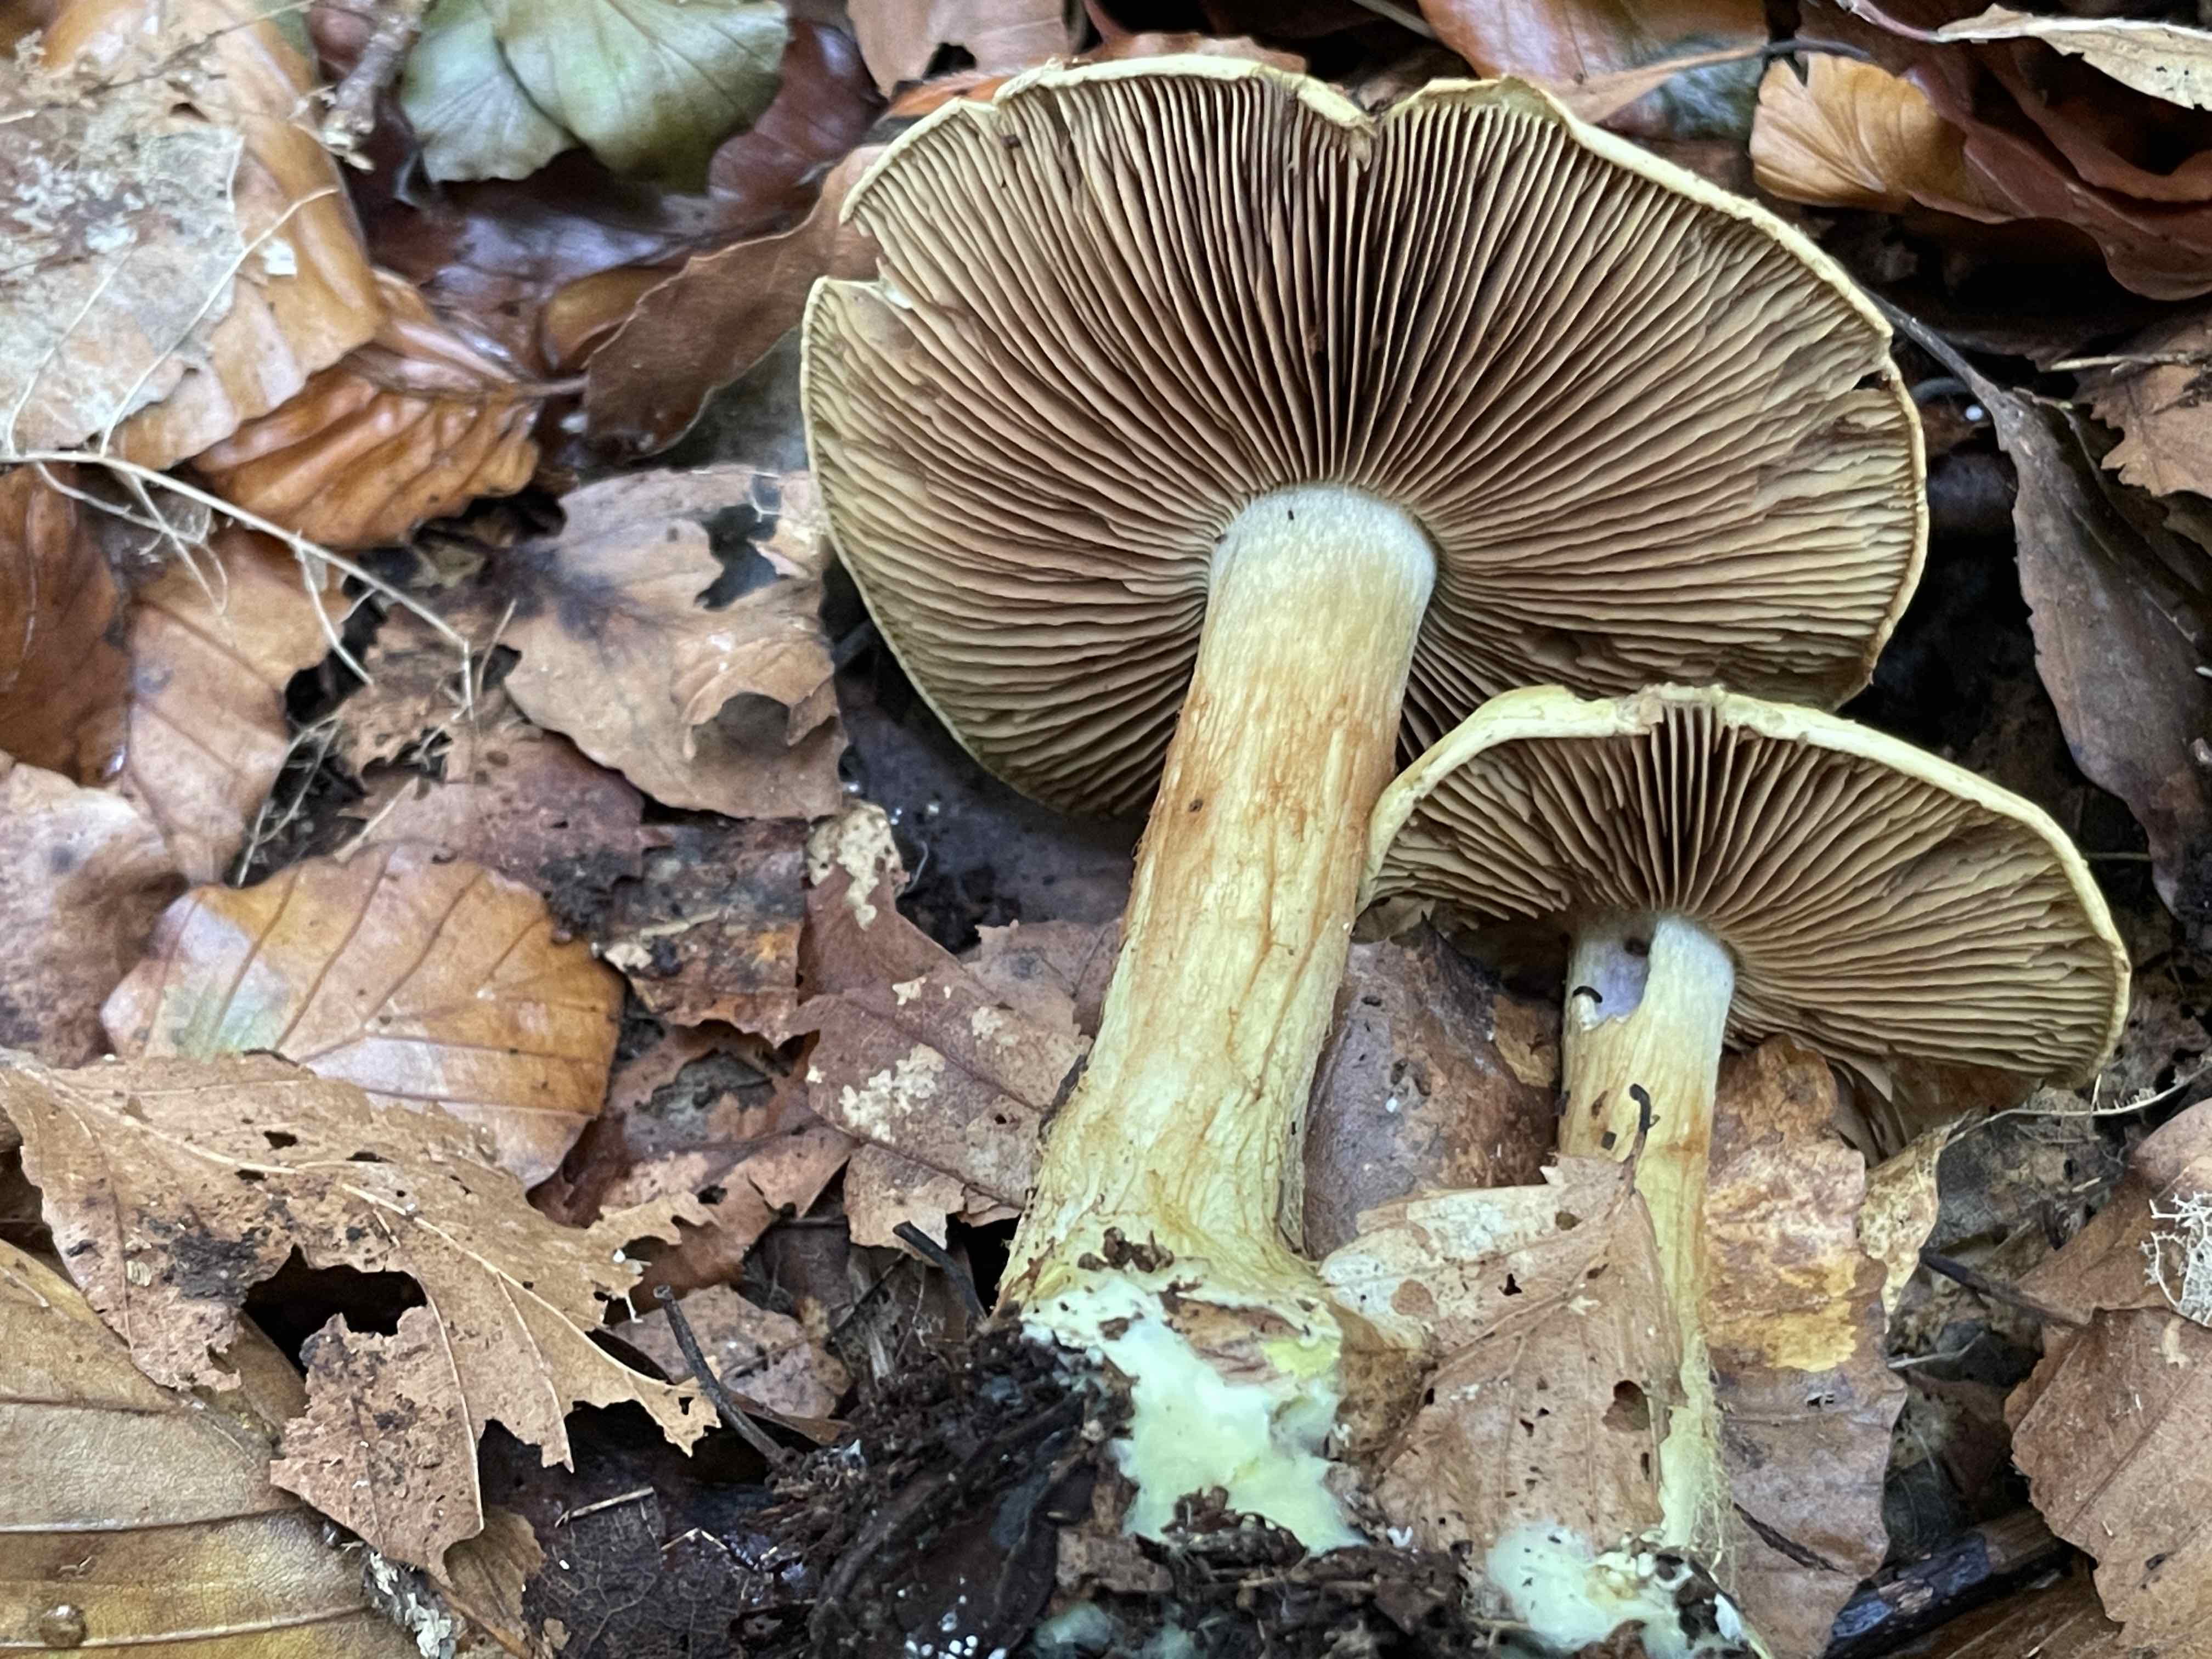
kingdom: Fungi
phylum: Basidiomycota
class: Agaricomycetes
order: Agaricales
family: Cortinariaceae
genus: Calonarius
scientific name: Calonarius odoratus
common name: krydret slørhat
